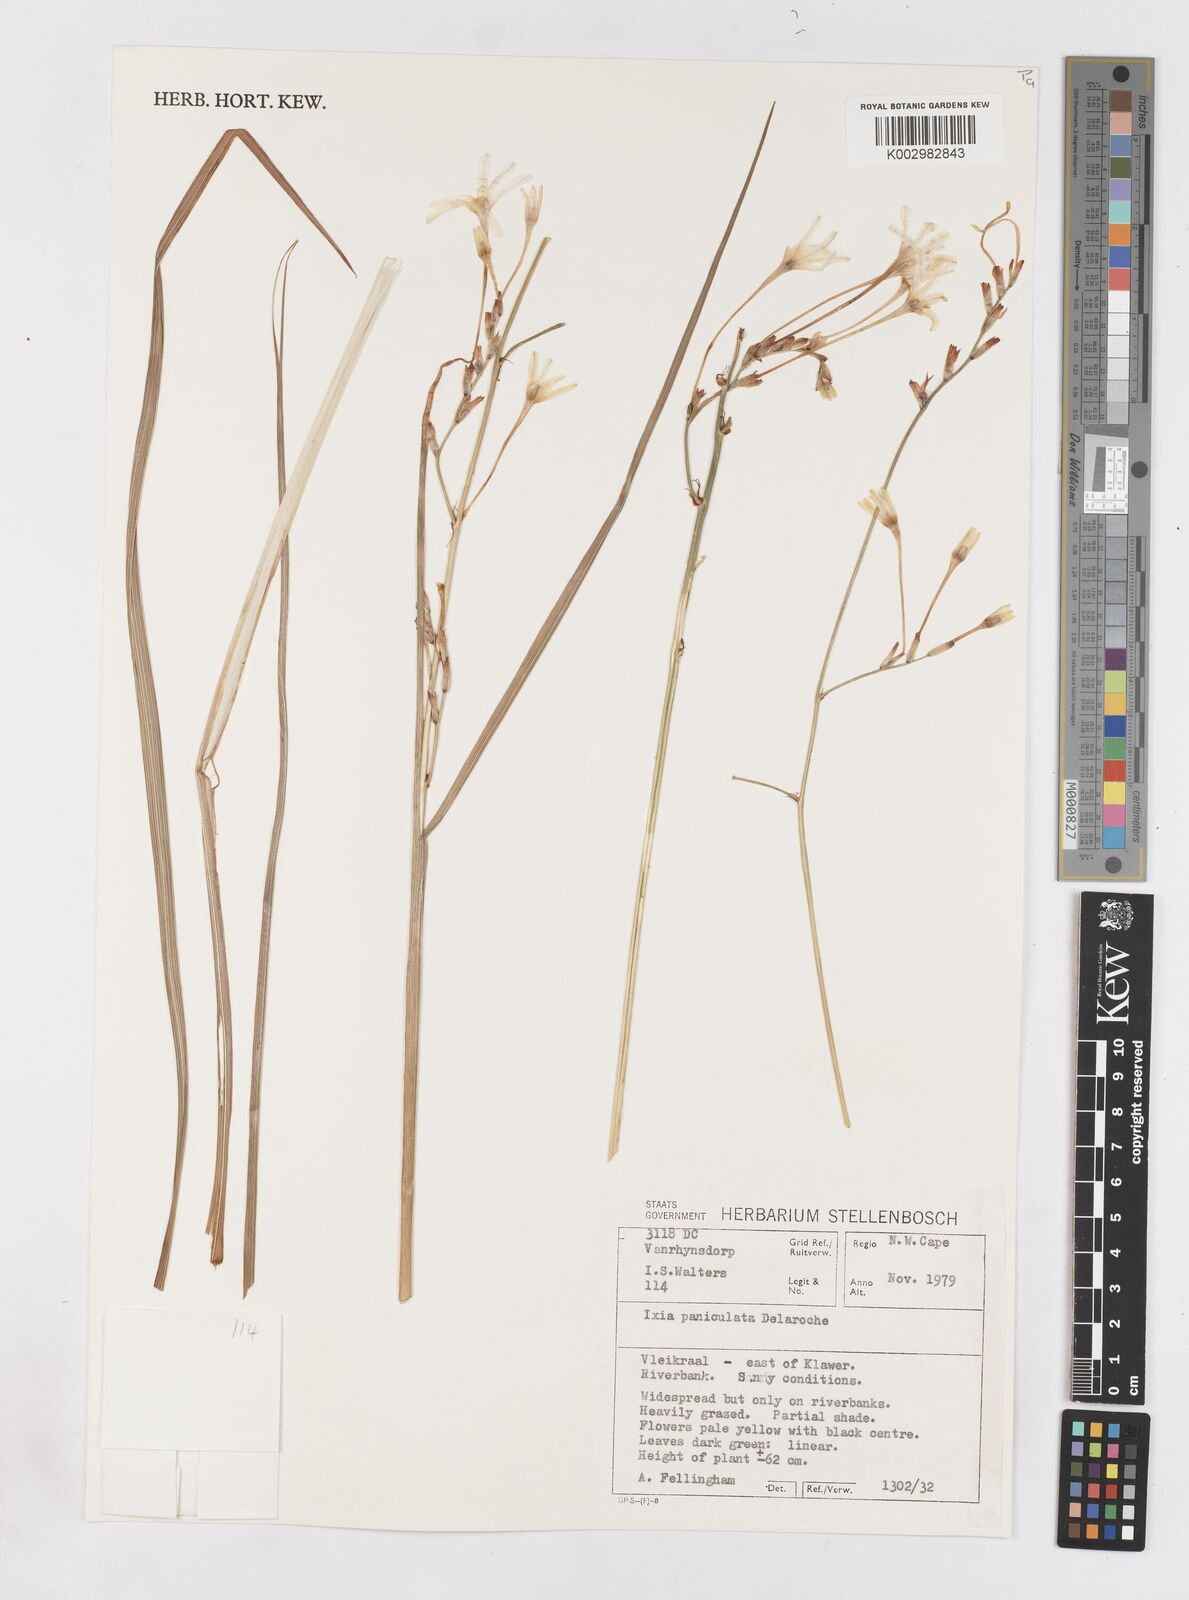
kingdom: Plantae
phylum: Tracheophyta
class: Liliopsida
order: Asparagales
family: Iridaceae
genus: Ixia
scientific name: Ixia paniculata
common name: Tubular corn-lily
